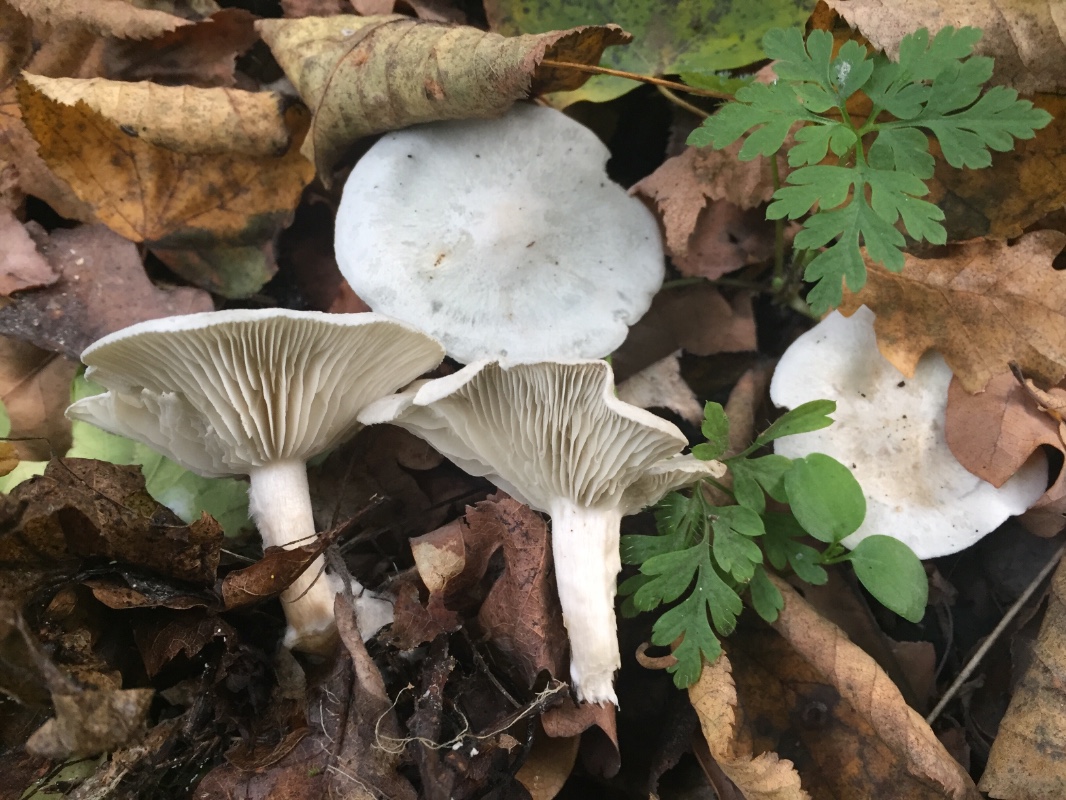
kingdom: Fungi
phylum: Basidiomycota
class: Agaricomycetes
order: Agaricales
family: Tricholomataceae
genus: Clitocybe
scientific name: Clitocybe odora
